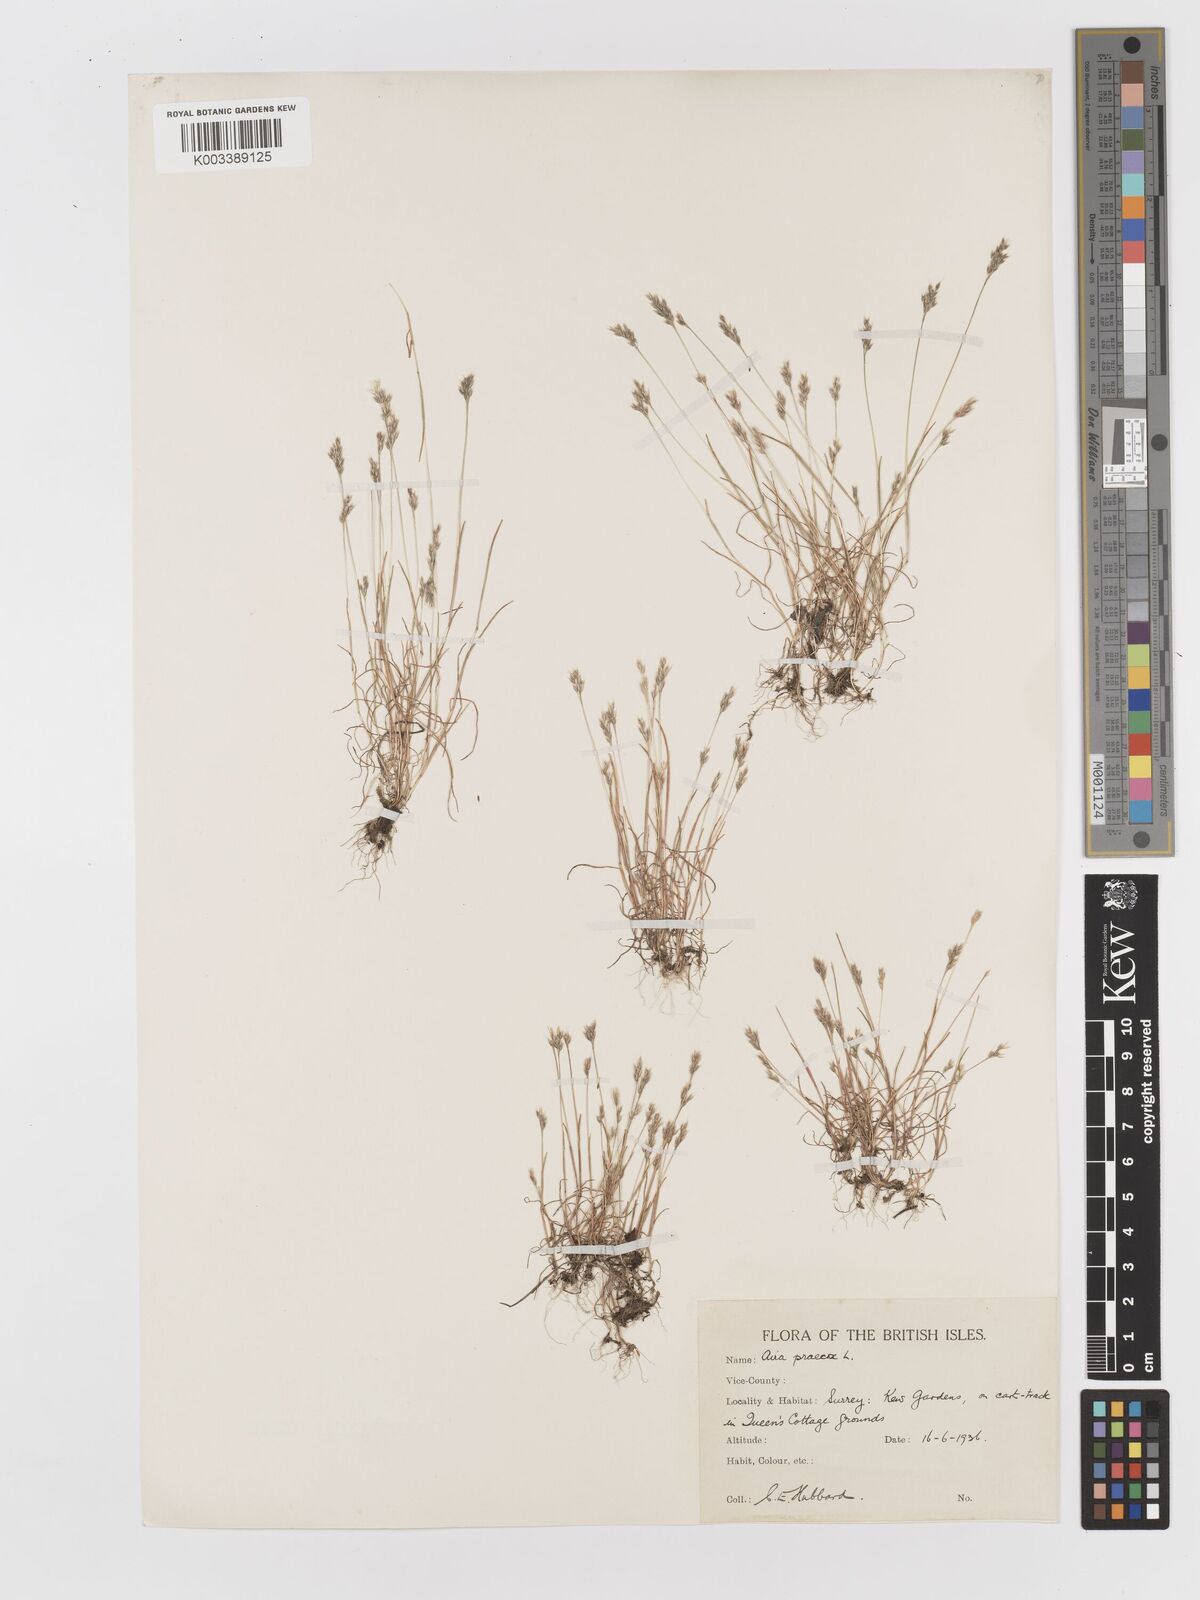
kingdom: Plantae
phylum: Tracheophyta
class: Liliopsida
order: Poales
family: Poaceae
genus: Aira
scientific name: Aira praecox
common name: Early hair-grass
